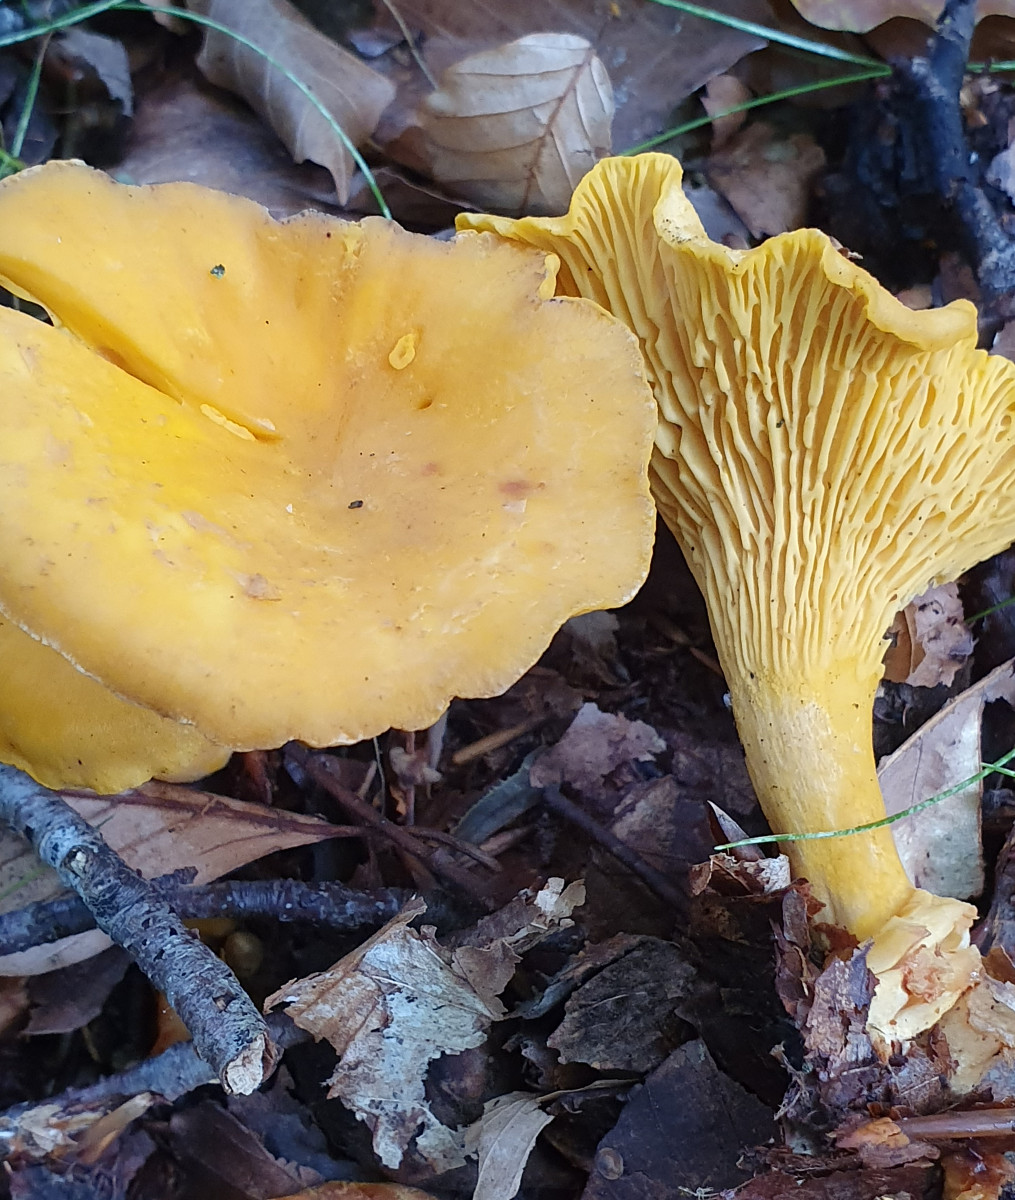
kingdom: Fungi
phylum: Basidiomycota
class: Agaricomycetes
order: Cantharellales
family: Hydnaceae
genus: Cantharellus
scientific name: Cantharellus cibarius
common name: almindelig kantarel
